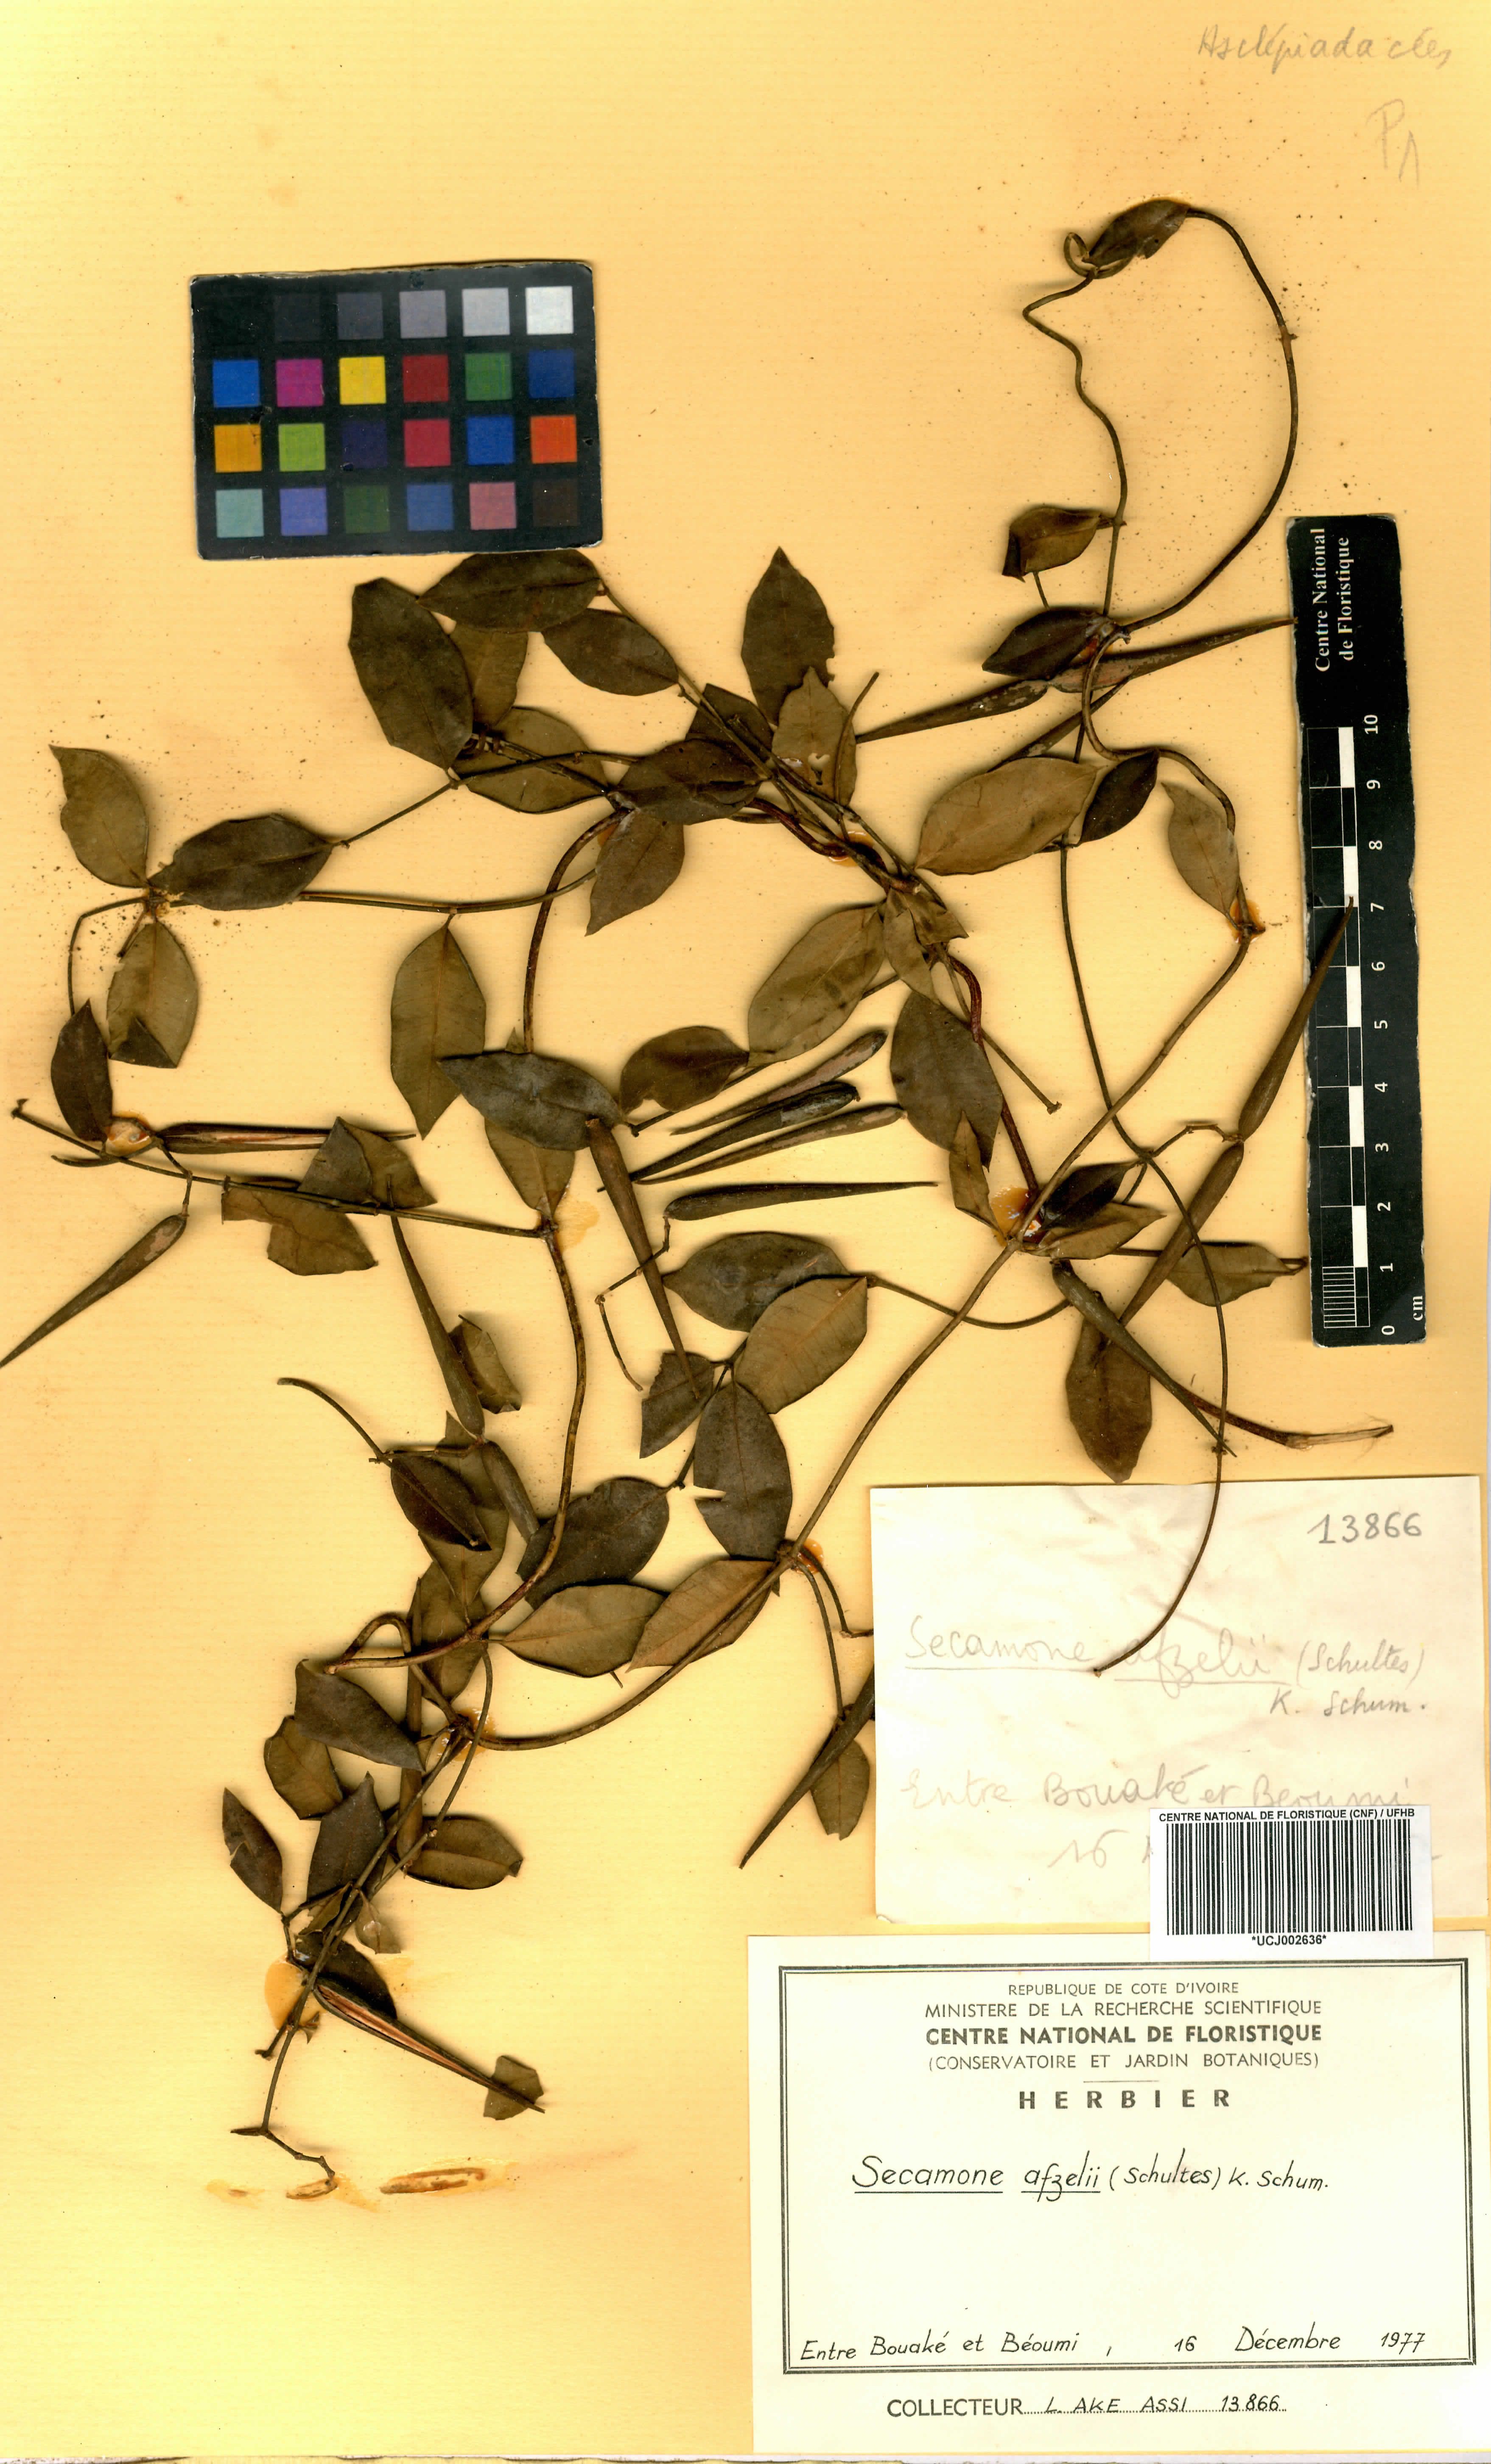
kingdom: Plantae
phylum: Tracheophyta
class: Magnoliopsida
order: Gentianales
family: Apocynaceae
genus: Secamone
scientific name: Secamone afzelii
